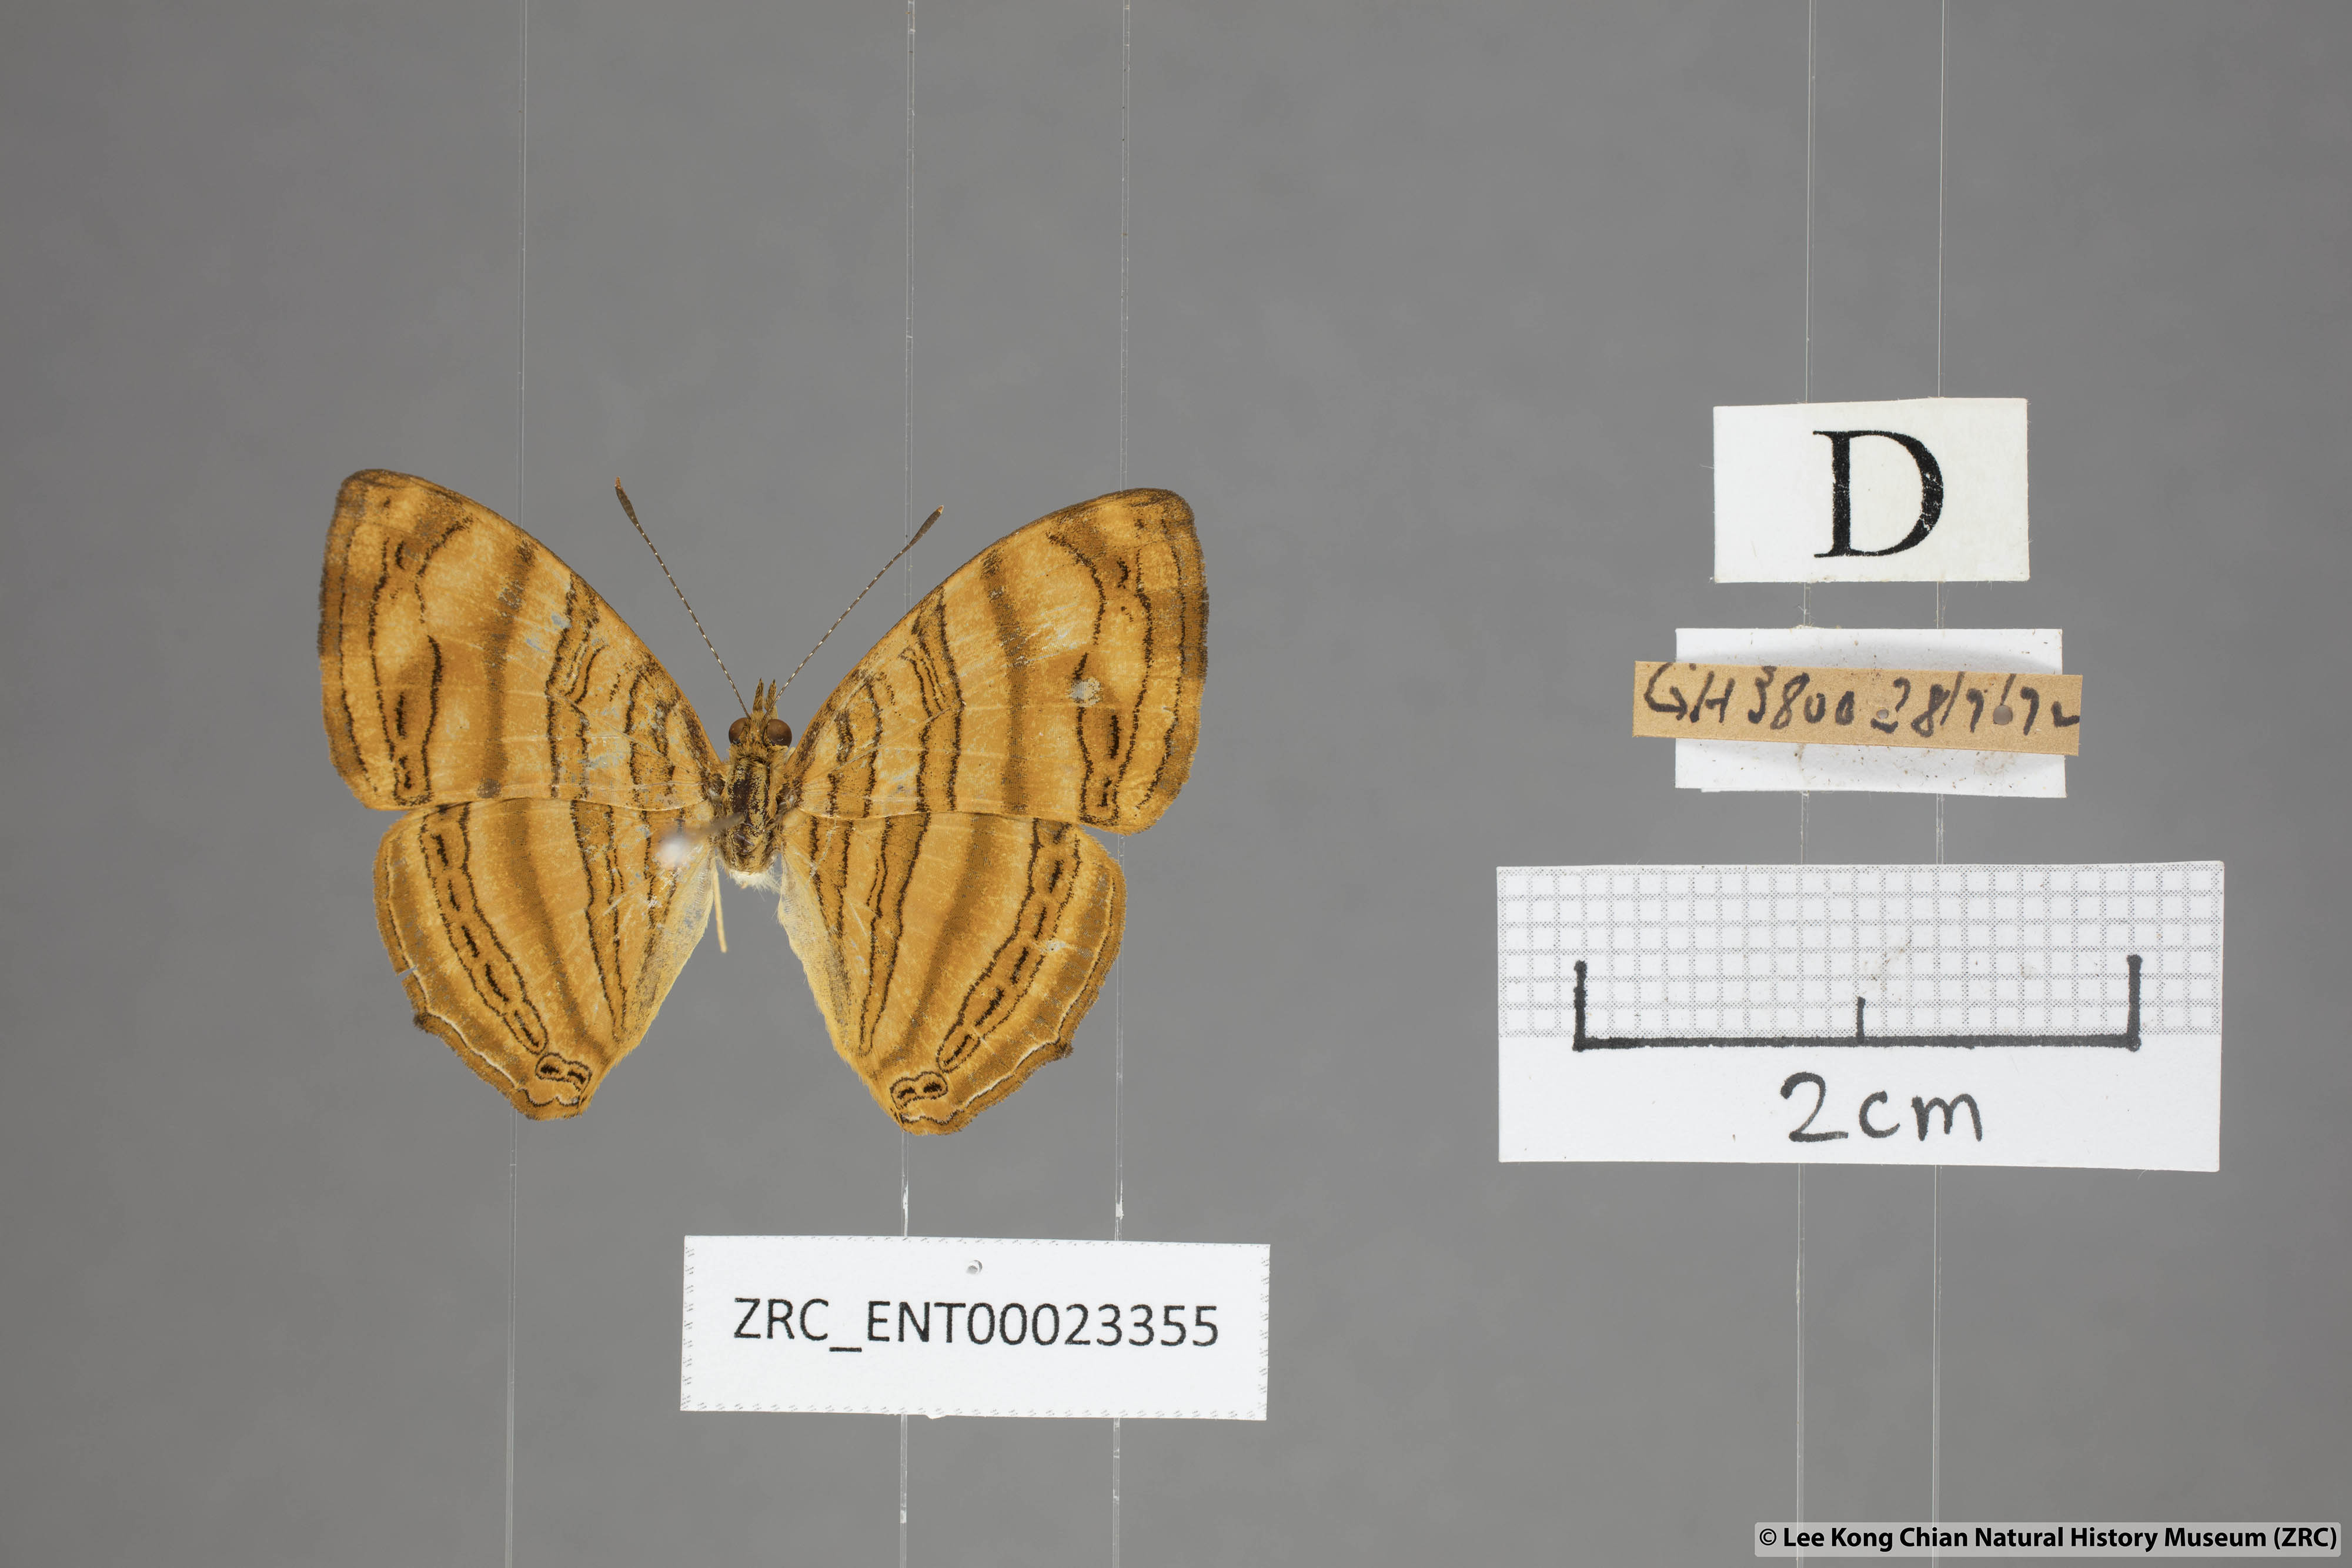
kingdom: Animalia
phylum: Arthropoda
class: Insecta
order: Lepidoptera
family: Nymphalidae
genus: Chersonesia
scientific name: Chersonesia intermedia
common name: Intermediate maplet
